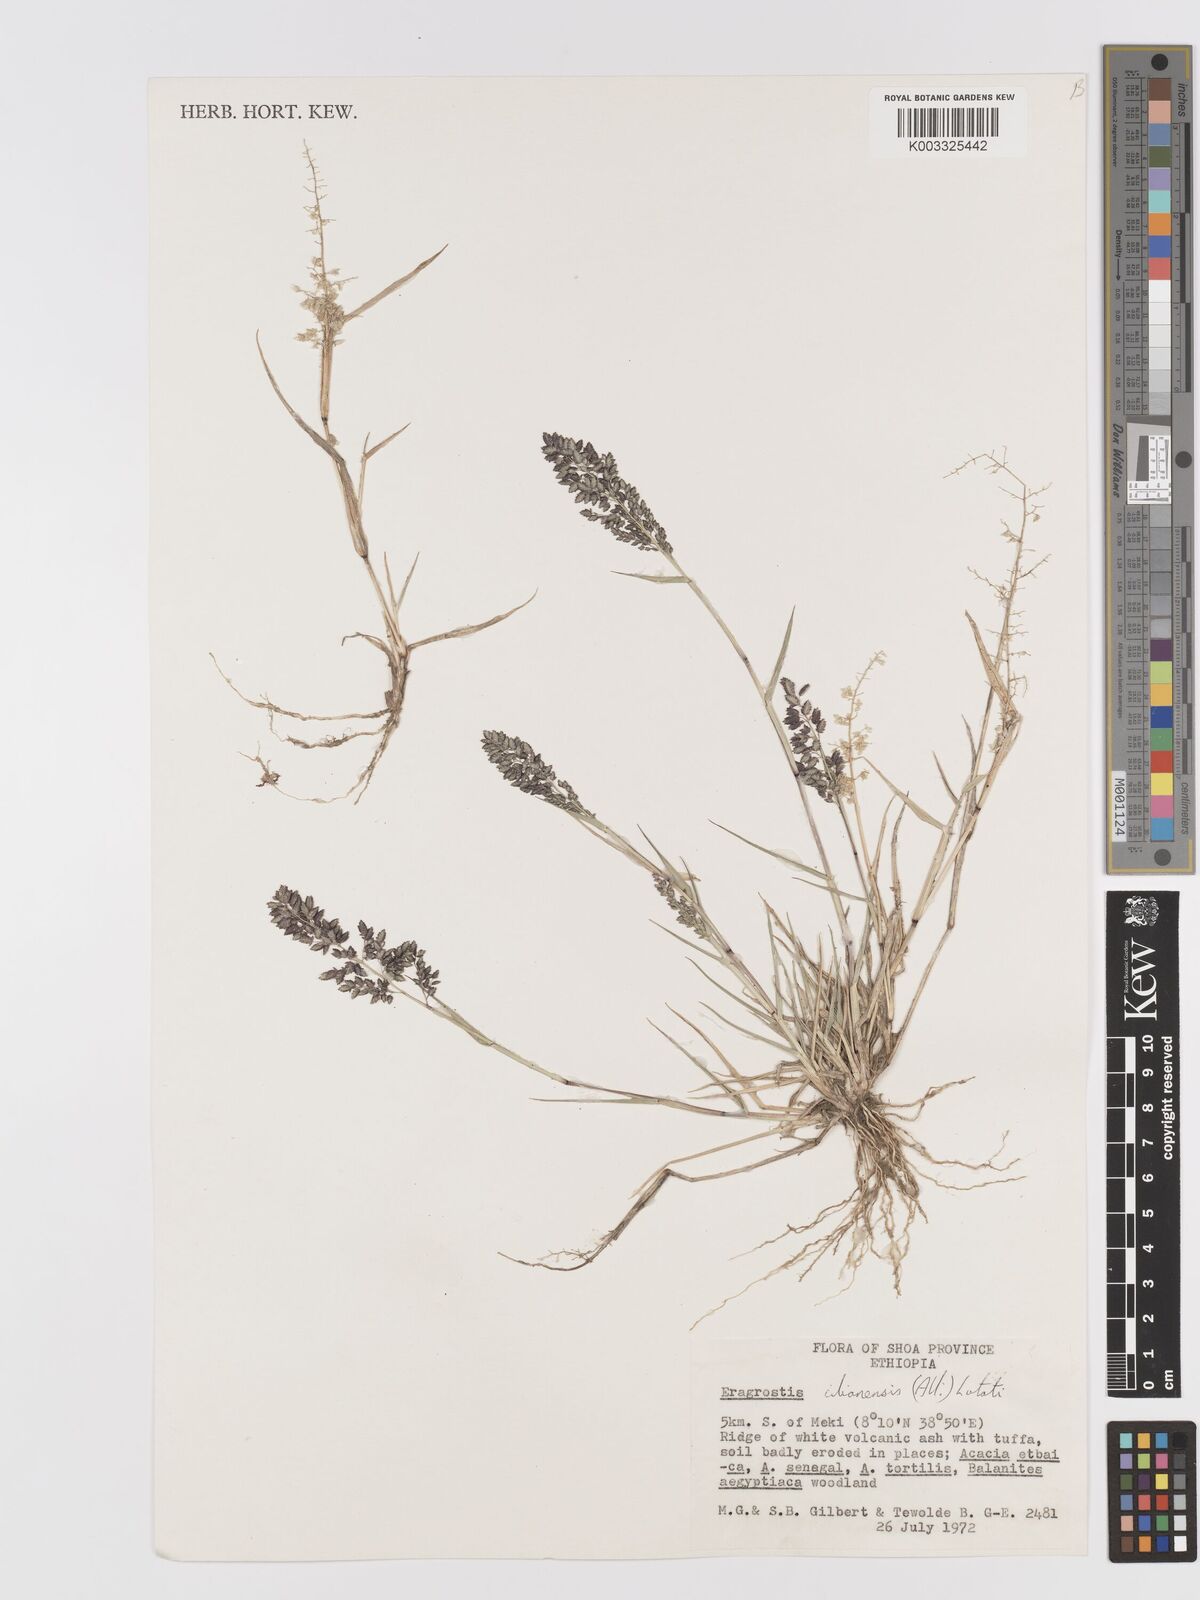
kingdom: Plantae
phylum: Tracheophyta
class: Liliopsida
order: Poales
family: Poaceae
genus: Eragrostis
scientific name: Eragrostis cilianensis
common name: Stinkgrass
